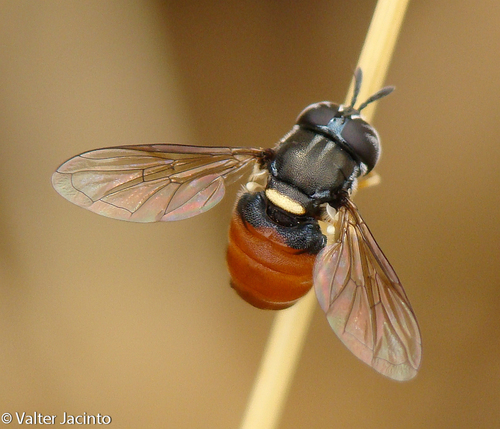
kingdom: Animalia
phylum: Arthropoda
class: Insecta
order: Diptera
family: Syrphidae
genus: Paragus
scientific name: Paragus
